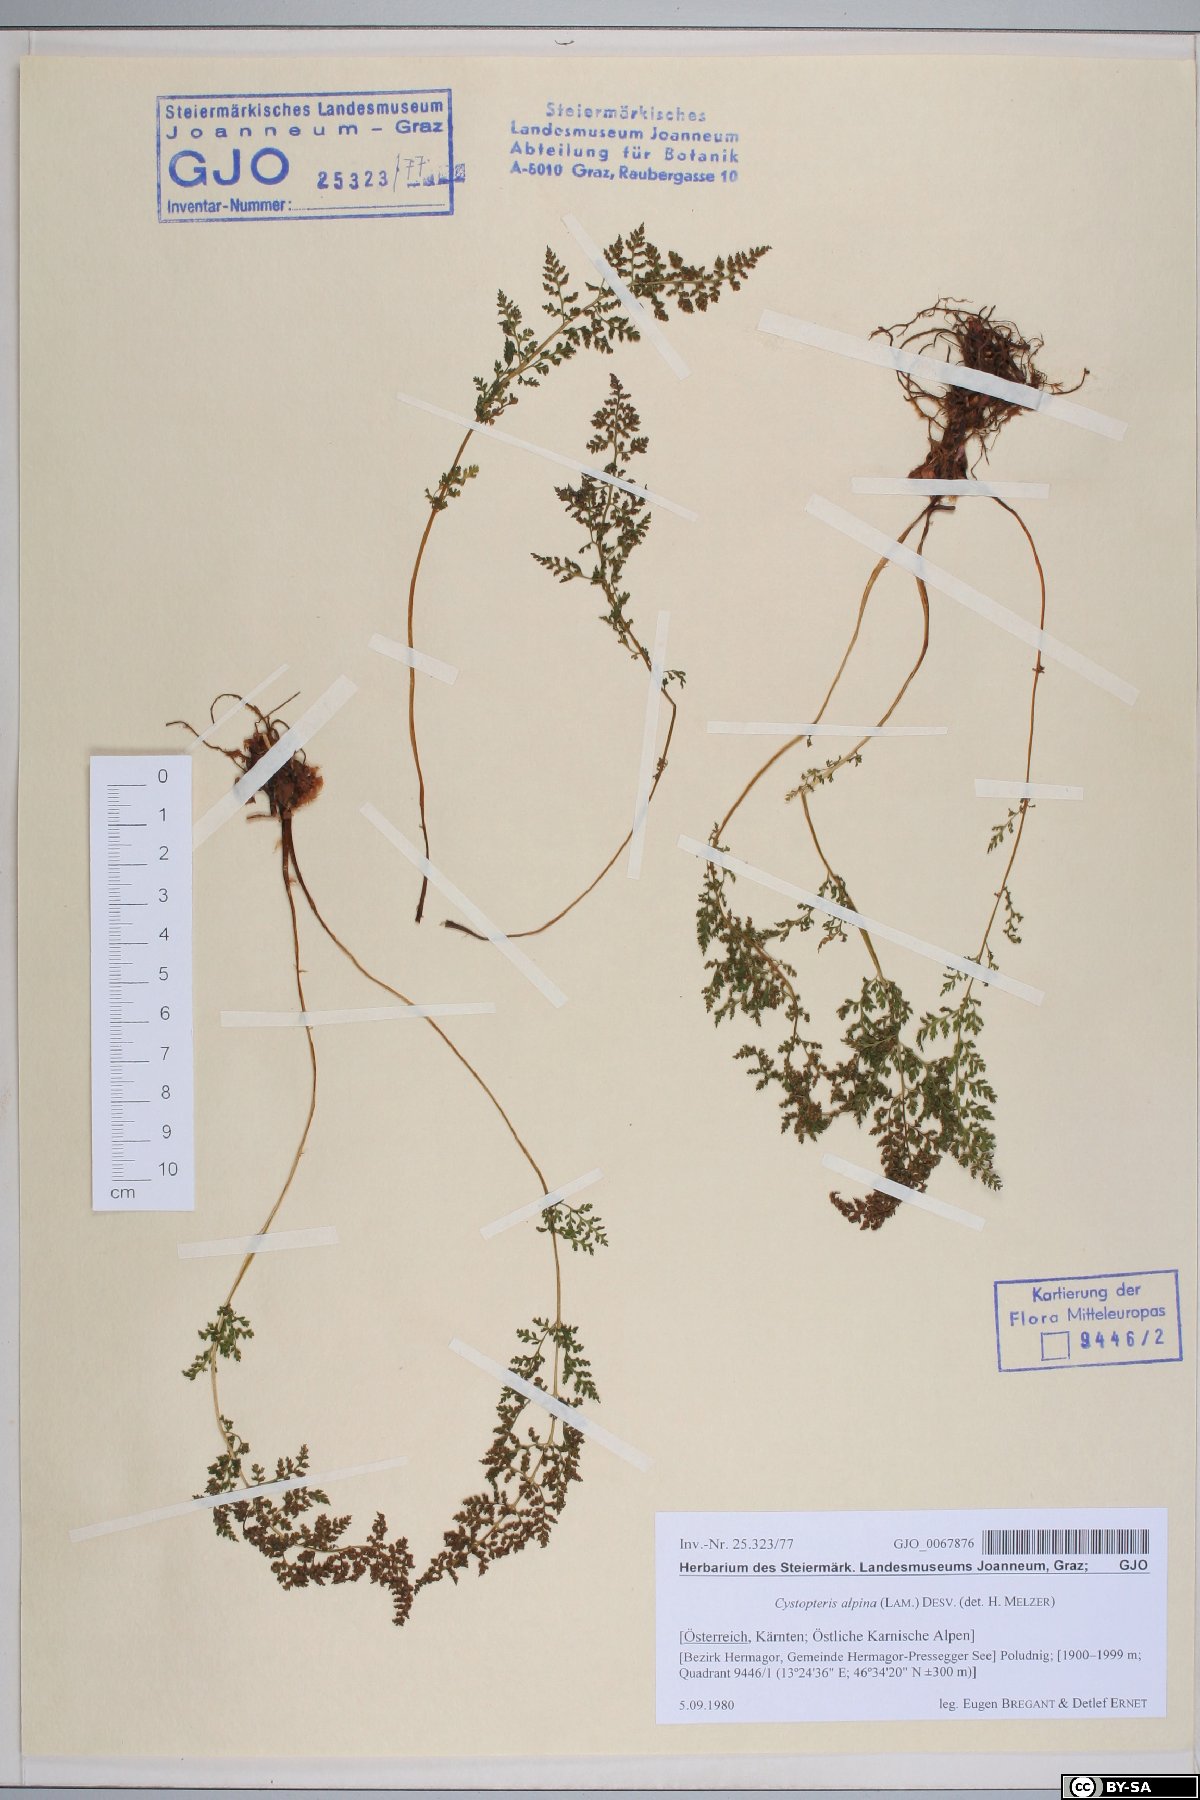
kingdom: Plantae
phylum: Tracheophyta
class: Polypodiopsida
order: Polypodiales
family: Cystopteridaceae
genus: Cystopteris
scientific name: Cystopteris alpina
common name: Alpine bladder-fern
